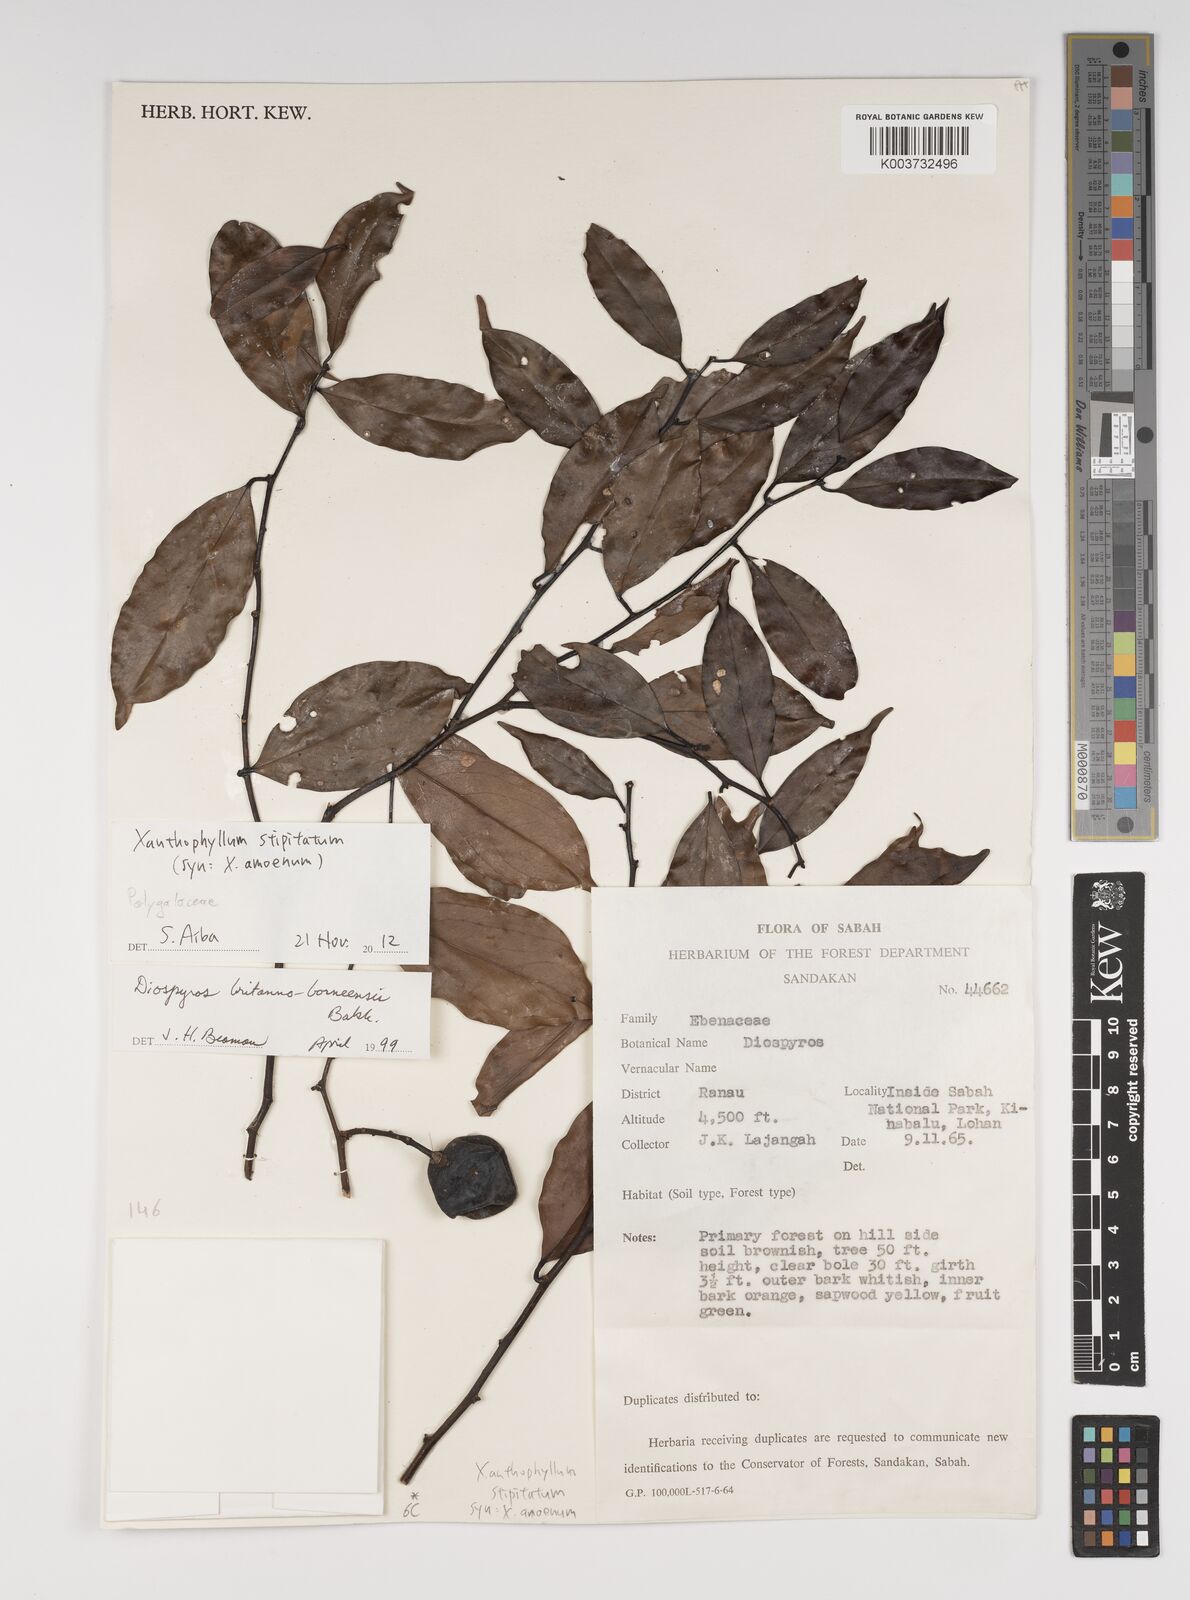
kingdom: Plantae
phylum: Tracheophyta
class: Magnoliopsida
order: Fabales
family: Polygalaceae
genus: Xanthophyllum
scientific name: Xanthophyllum stipitatum
